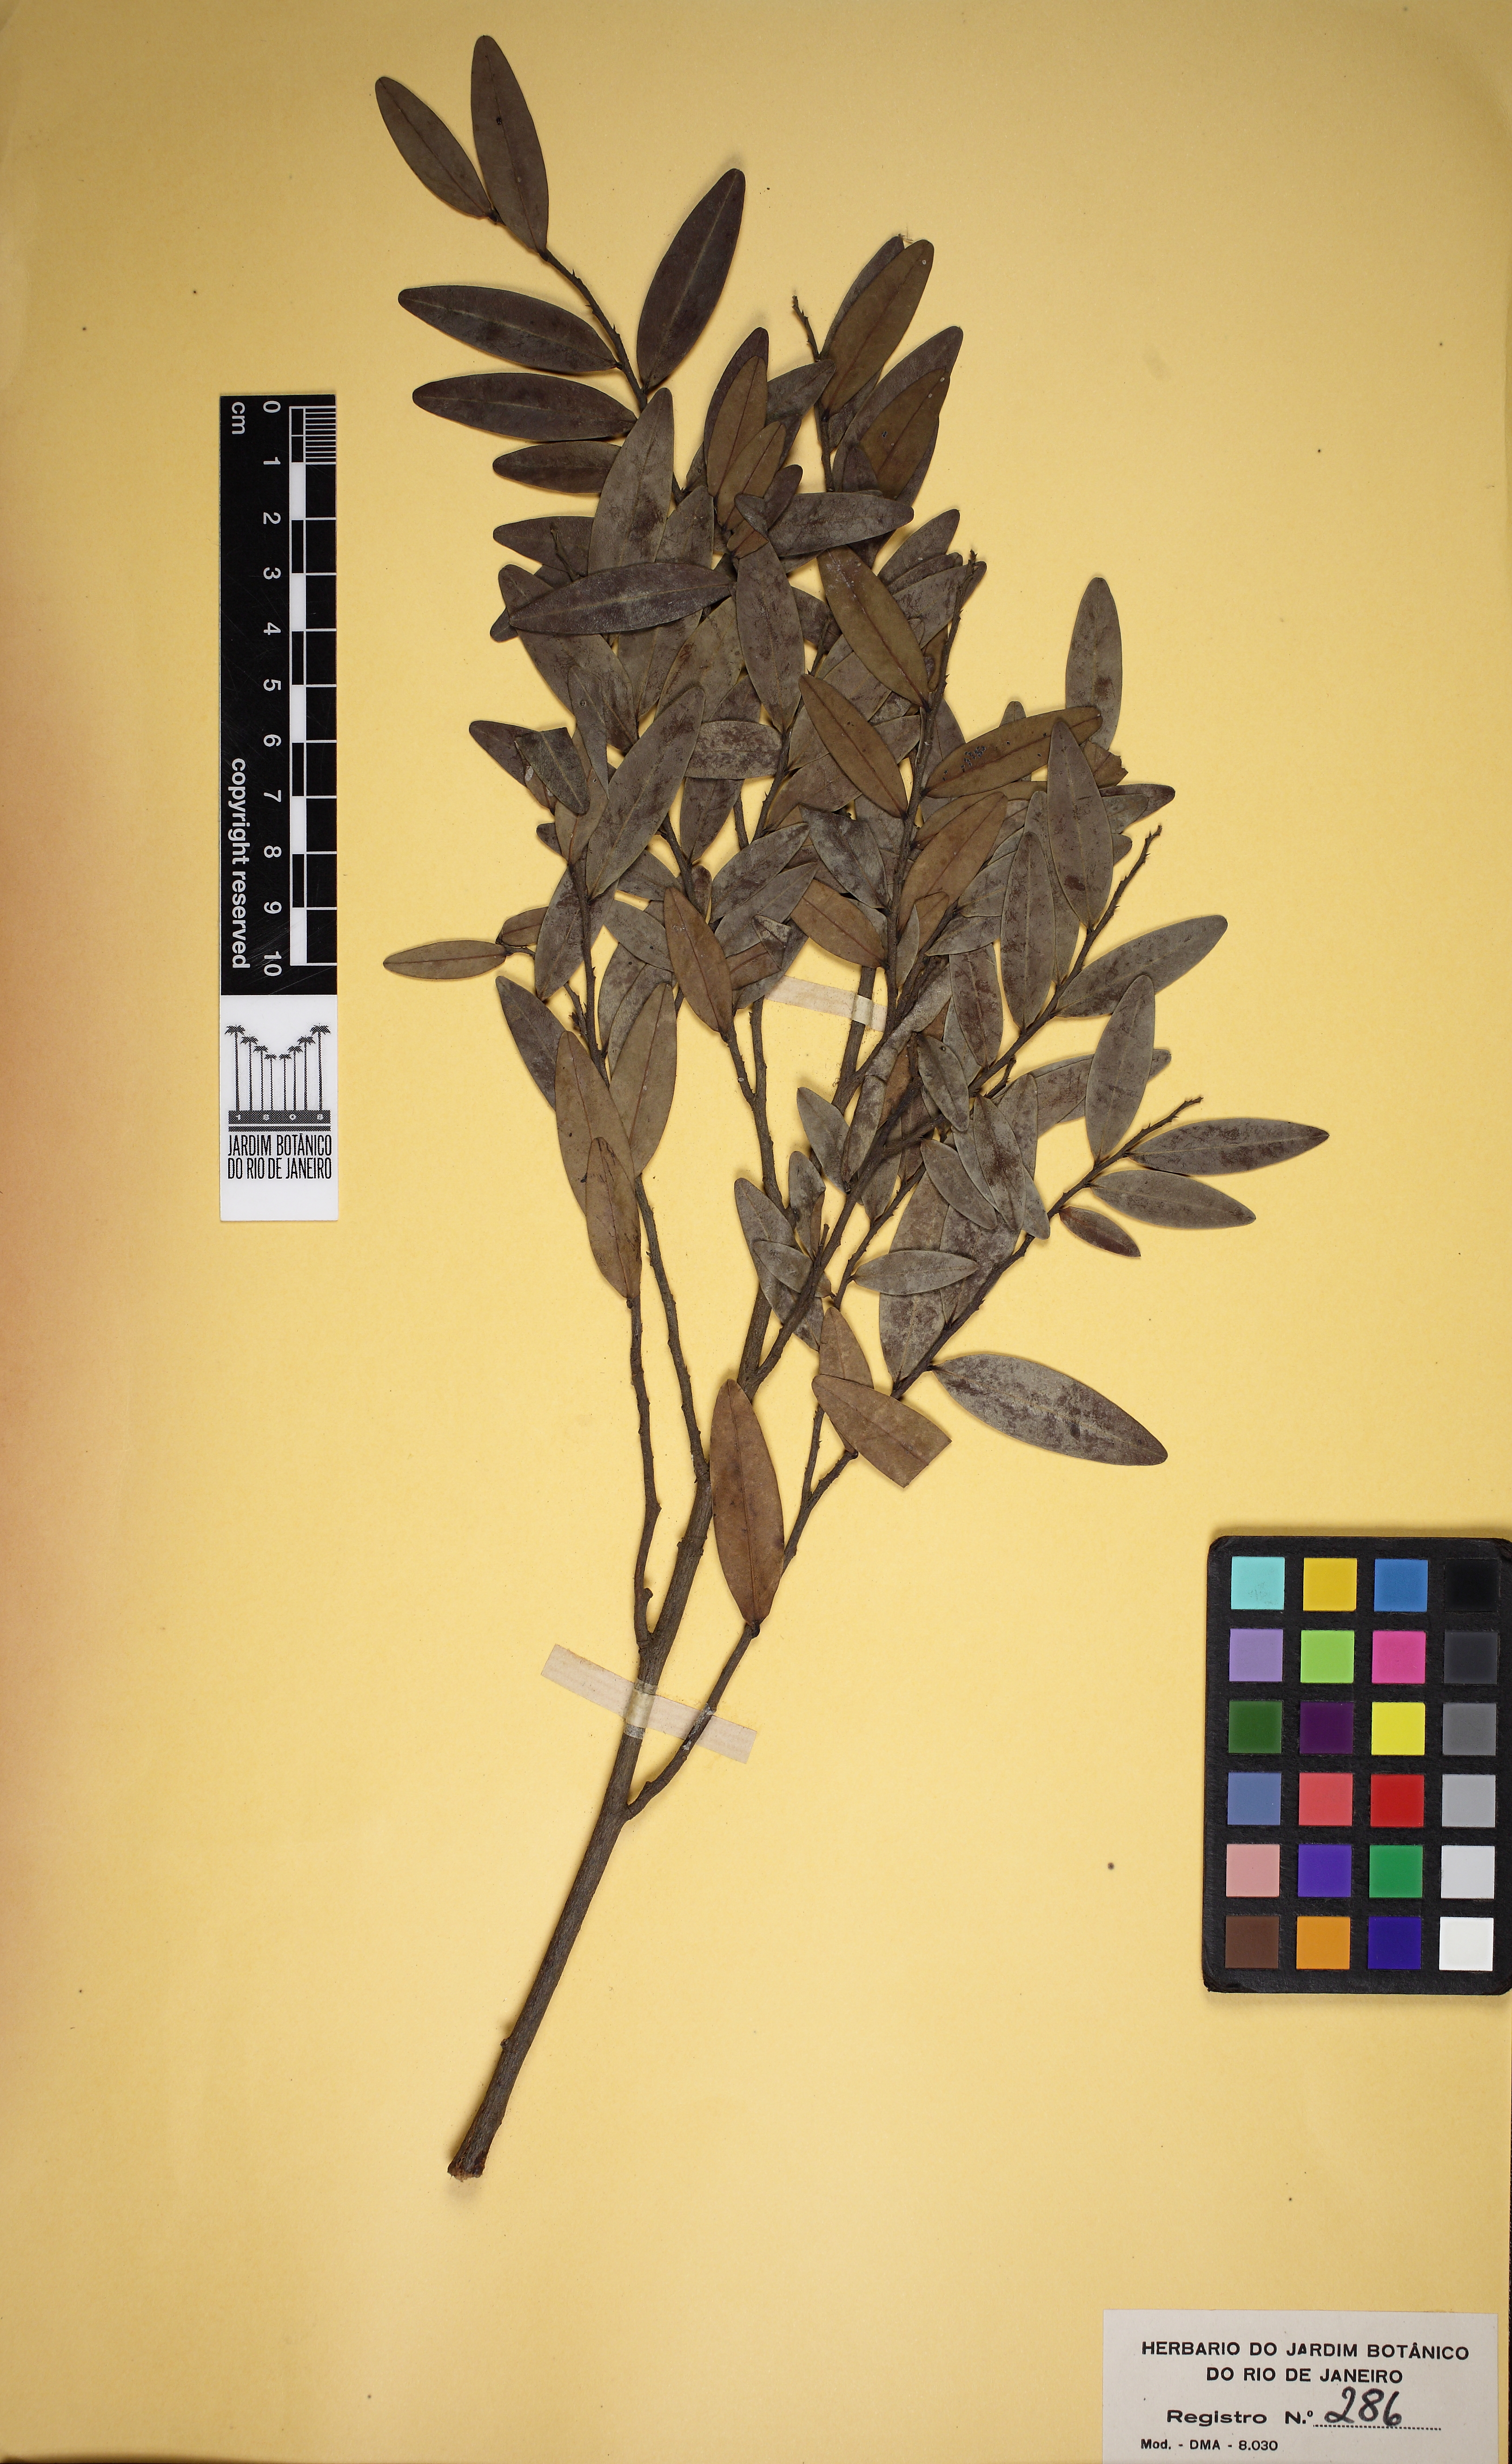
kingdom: Plantae
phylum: Tracheophyta
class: Magnoliopsida
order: Magnoliales
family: Annonaceae
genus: Xylopia
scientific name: Xylopia emarginata
